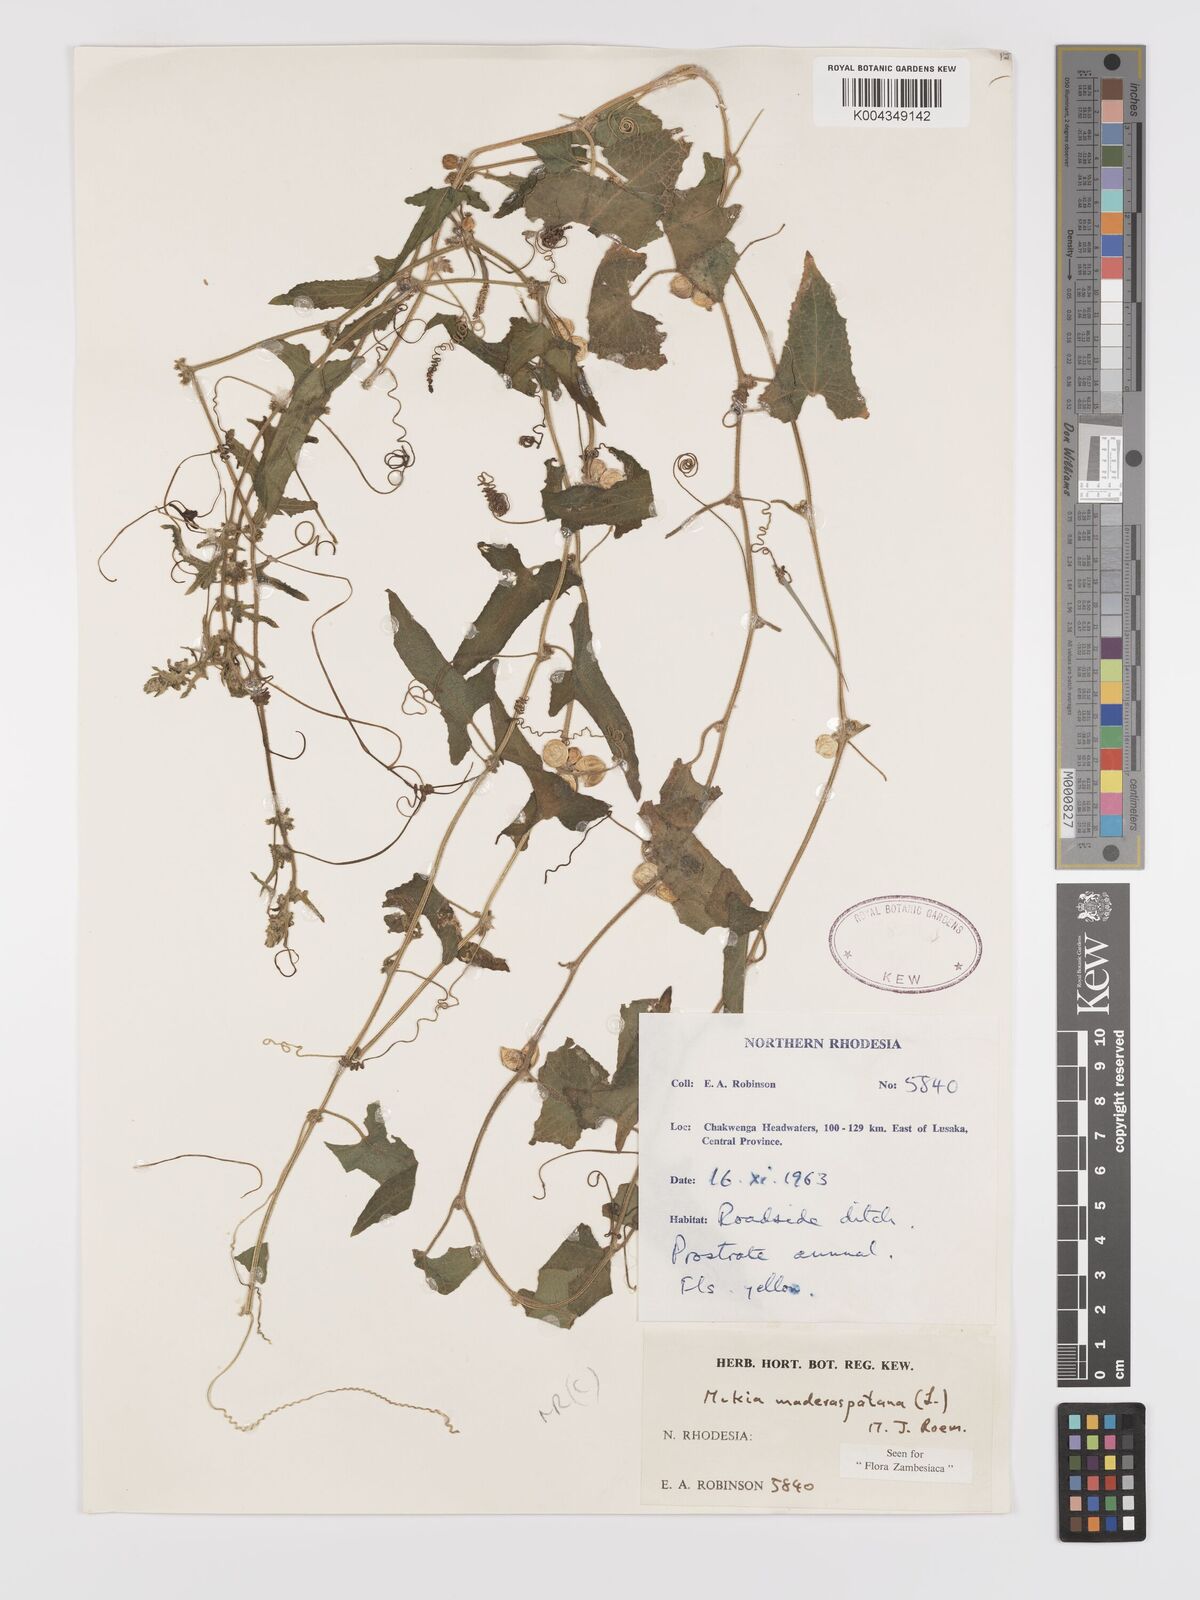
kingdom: Plantae
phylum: Tracheophyta
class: Magnoliopsida
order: Cucurbitales
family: Cucurbitaceae
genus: Cucumis
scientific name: Cucumis maderaspatanus
